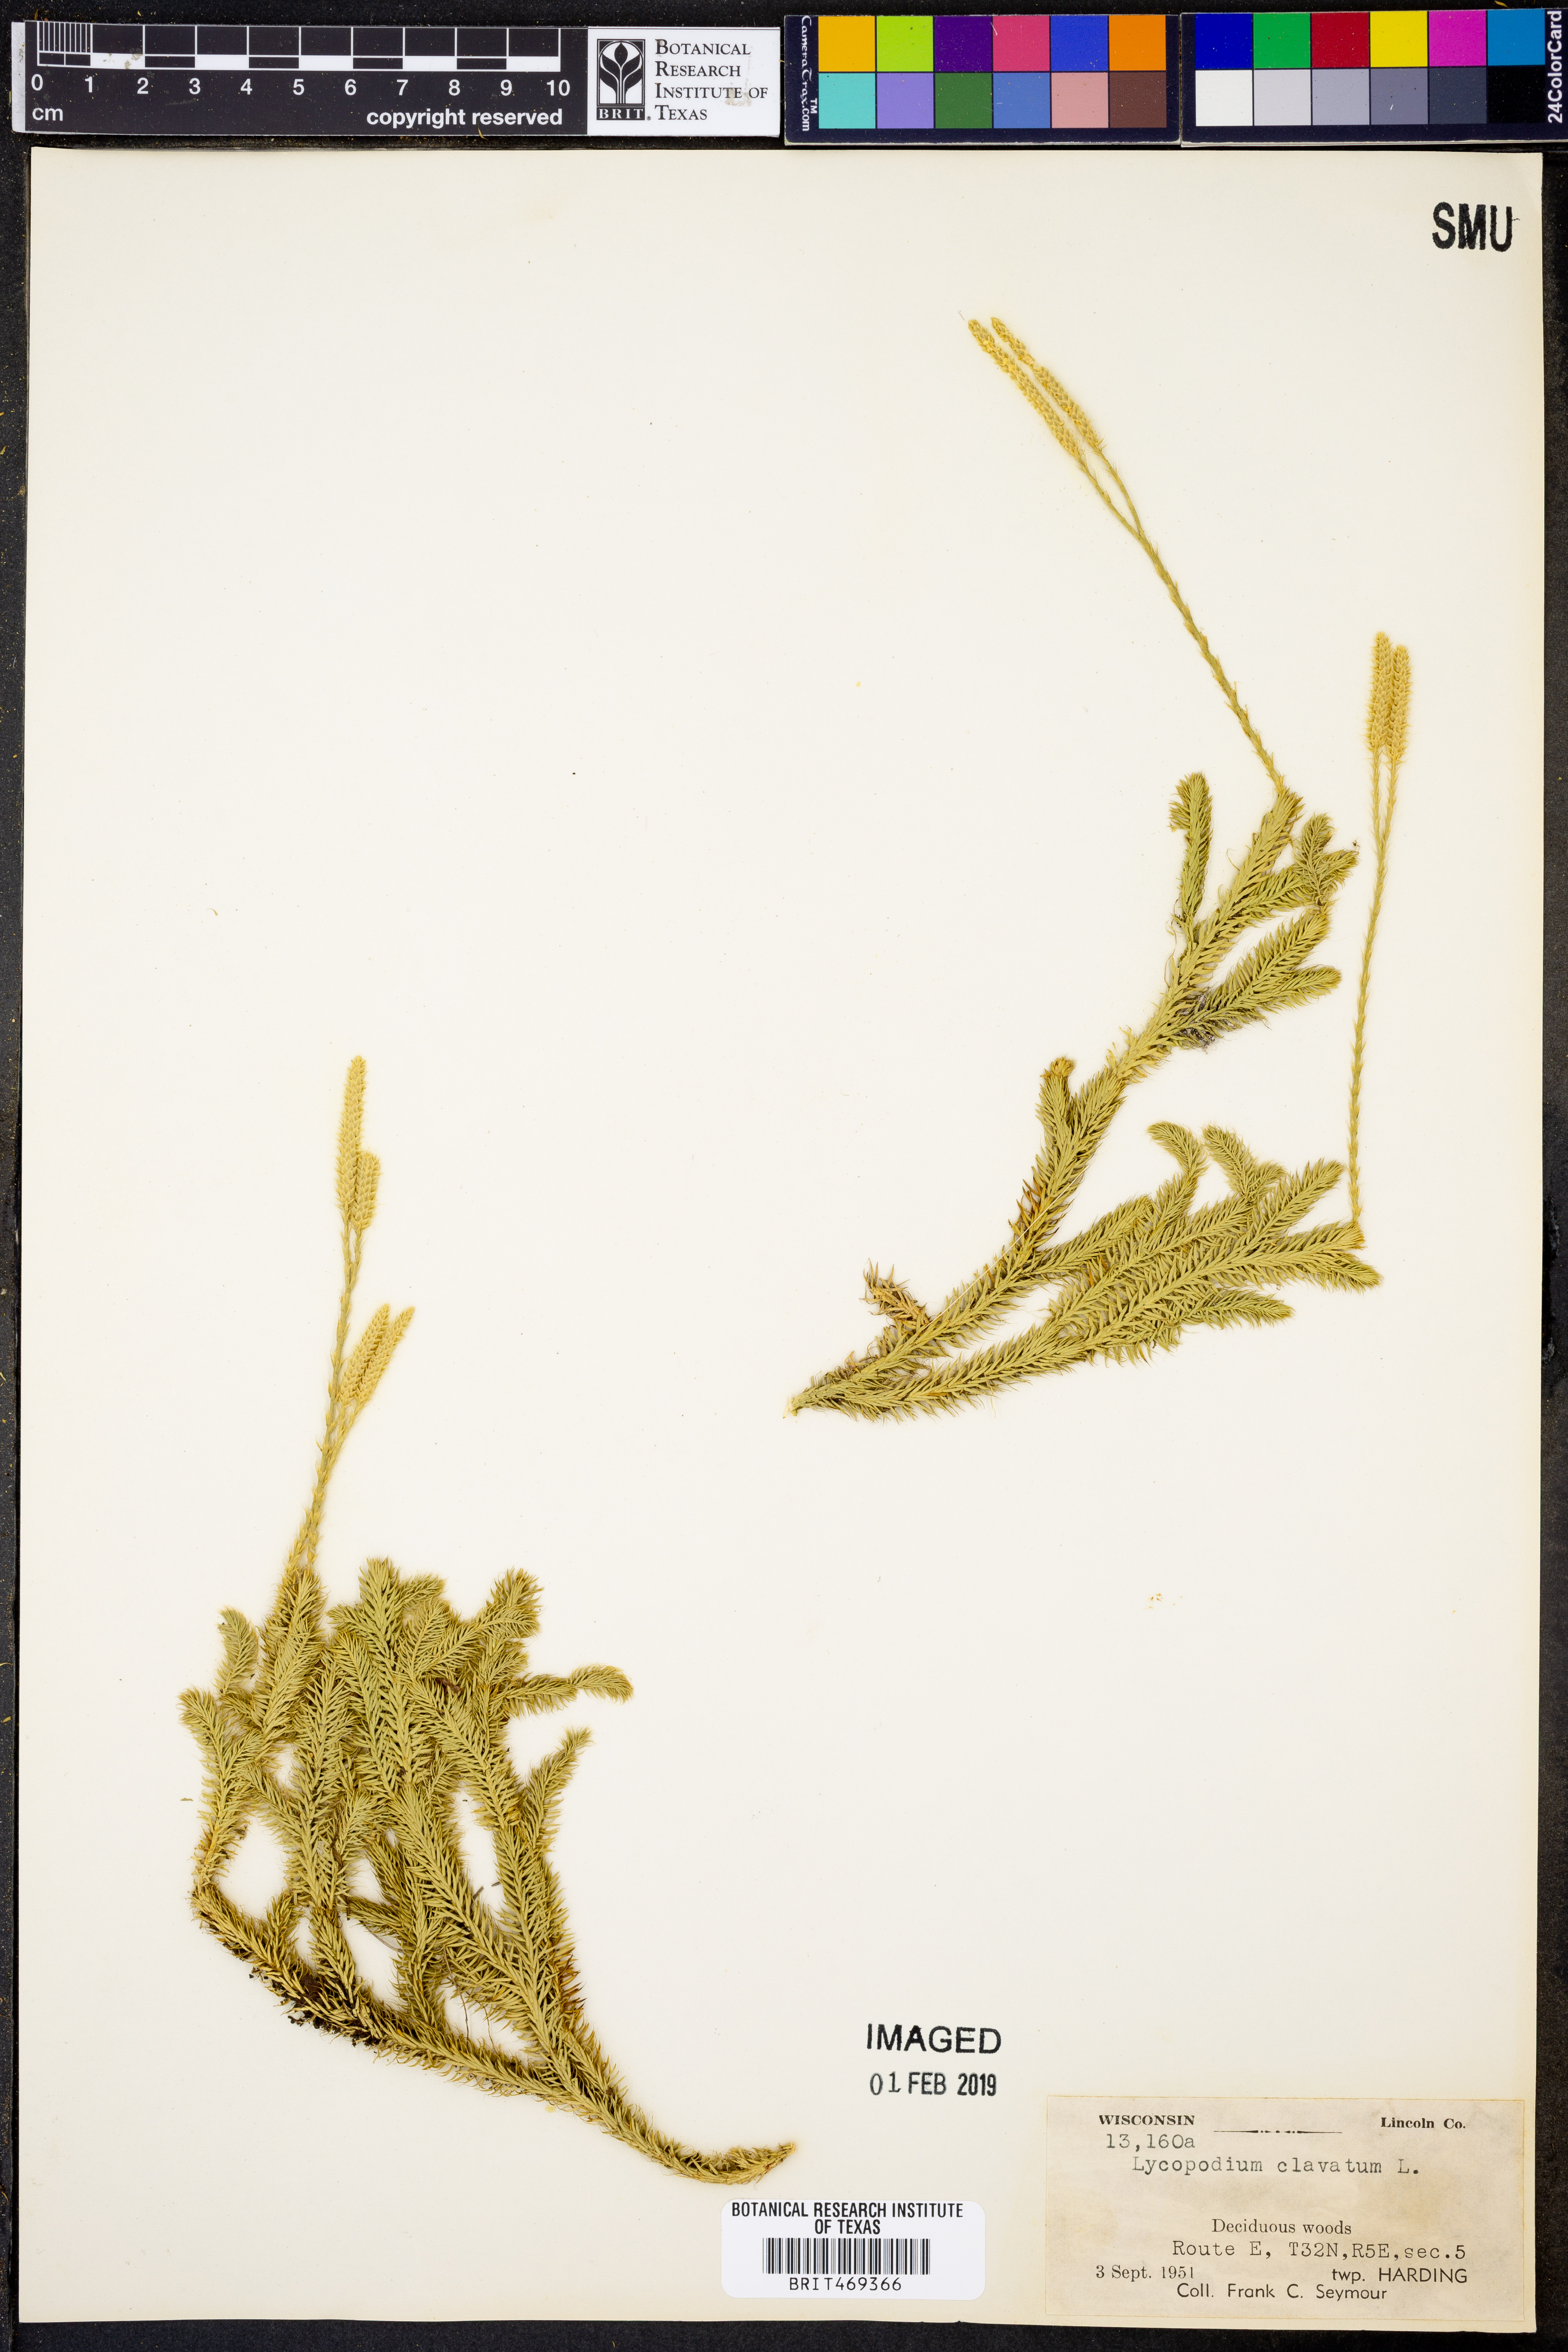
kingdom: Plantae
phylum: Tracheophyta
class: Lycopodiopsida
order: Lycopodiales
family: Lycopodiaceae
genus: Lycopodium
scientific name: Lycopodium clavatum
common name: Stag's-horn clubmoss
